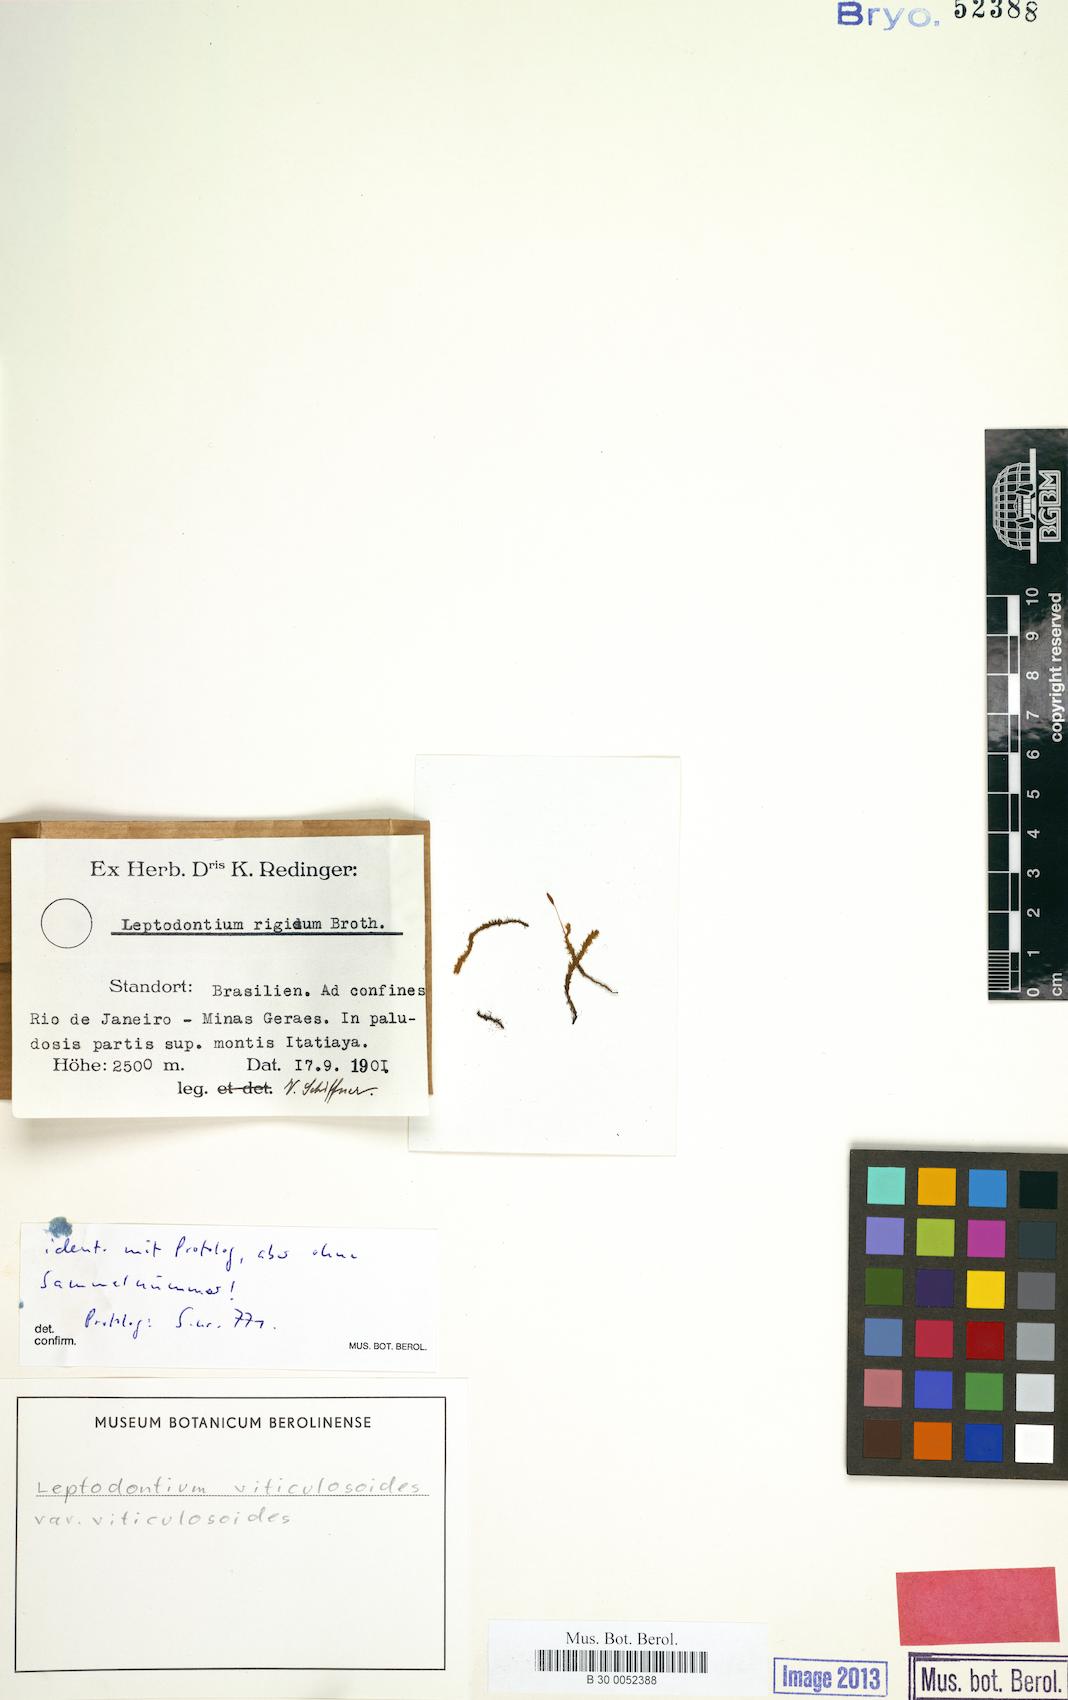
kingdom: Plantae
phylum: Bryophyta
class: Bryopsida
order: Pottiales
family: Pottiaceae
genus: Leptodontium
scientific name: Leptodontium viticulosoides
